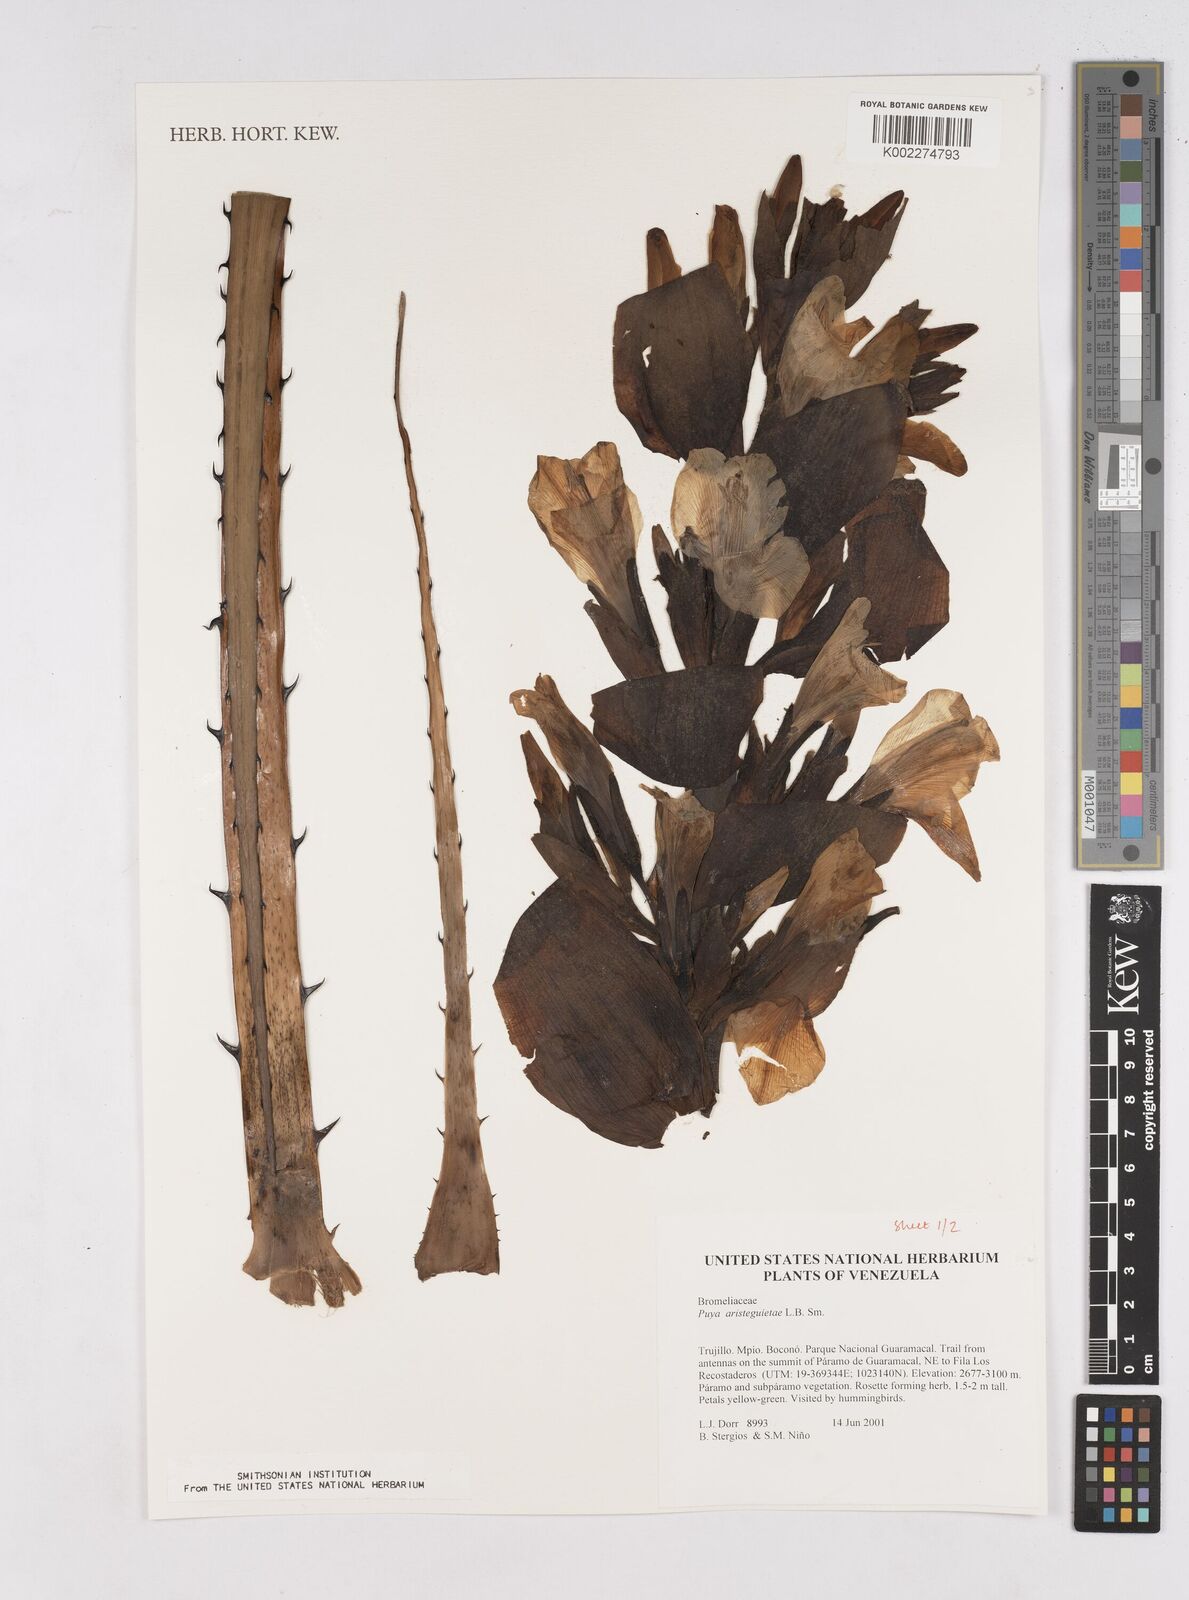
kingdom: Plantae
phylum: Tracheophyta
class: Liliopsida
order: Poales
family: Bromeliaceae
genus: Puya
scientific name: Puya aristeguietae
